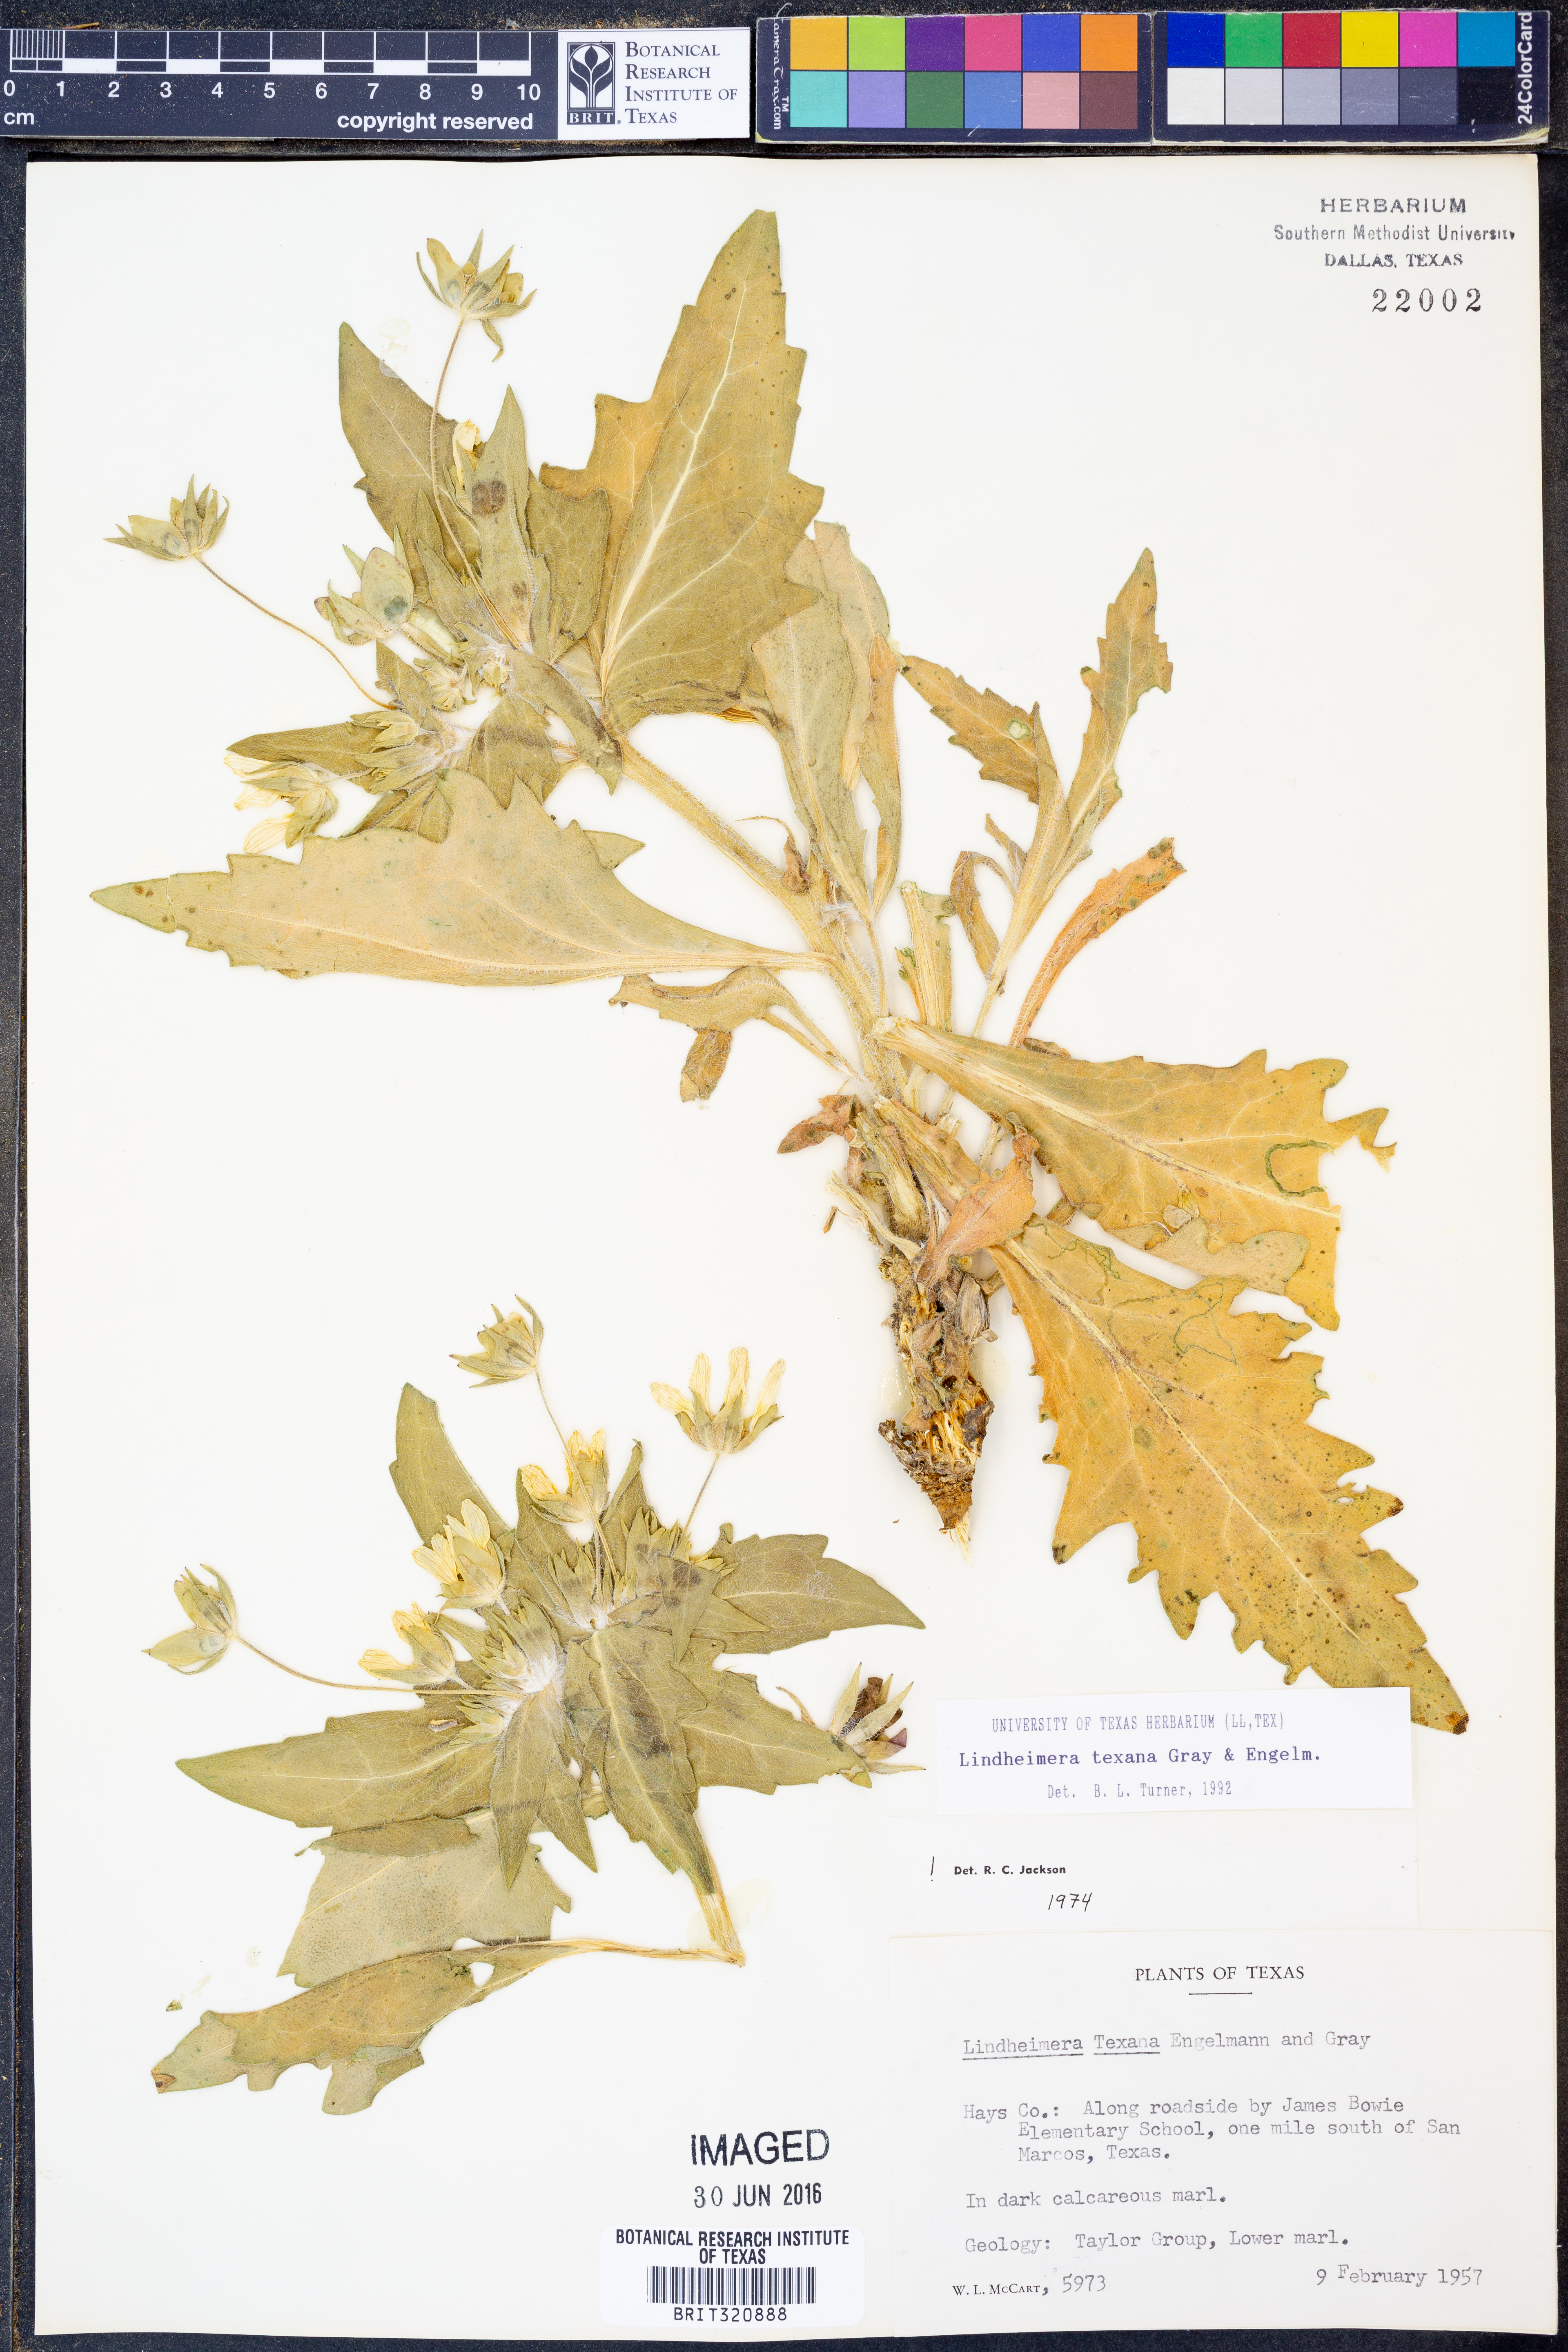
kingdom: Plantae
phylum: Tracheophyta
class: Magnoliopsida
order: Asterales
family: Asteraceae
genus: Lindheimera
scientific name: Lindheimera texana
